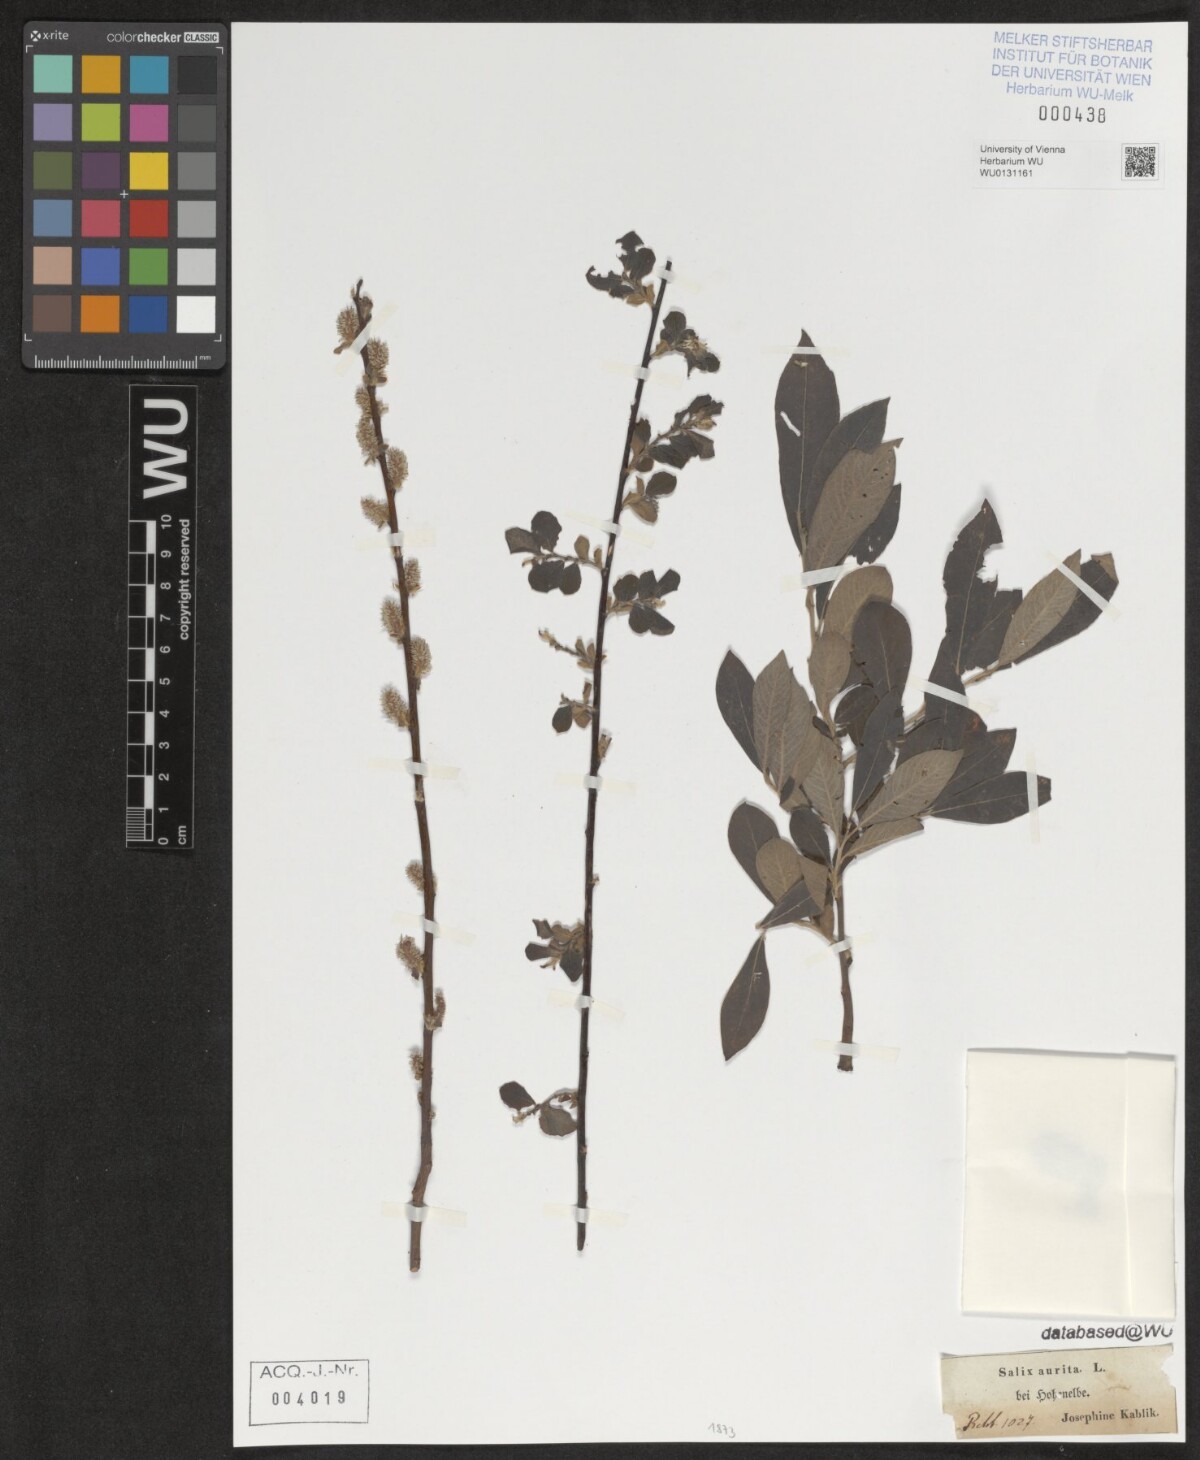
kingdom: Plantae
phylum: Tracheophyta
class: Magnoliopsida
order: Malpighiales
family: Salicaceae
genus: Salix
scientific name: Salix aurita
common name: Eared willow
